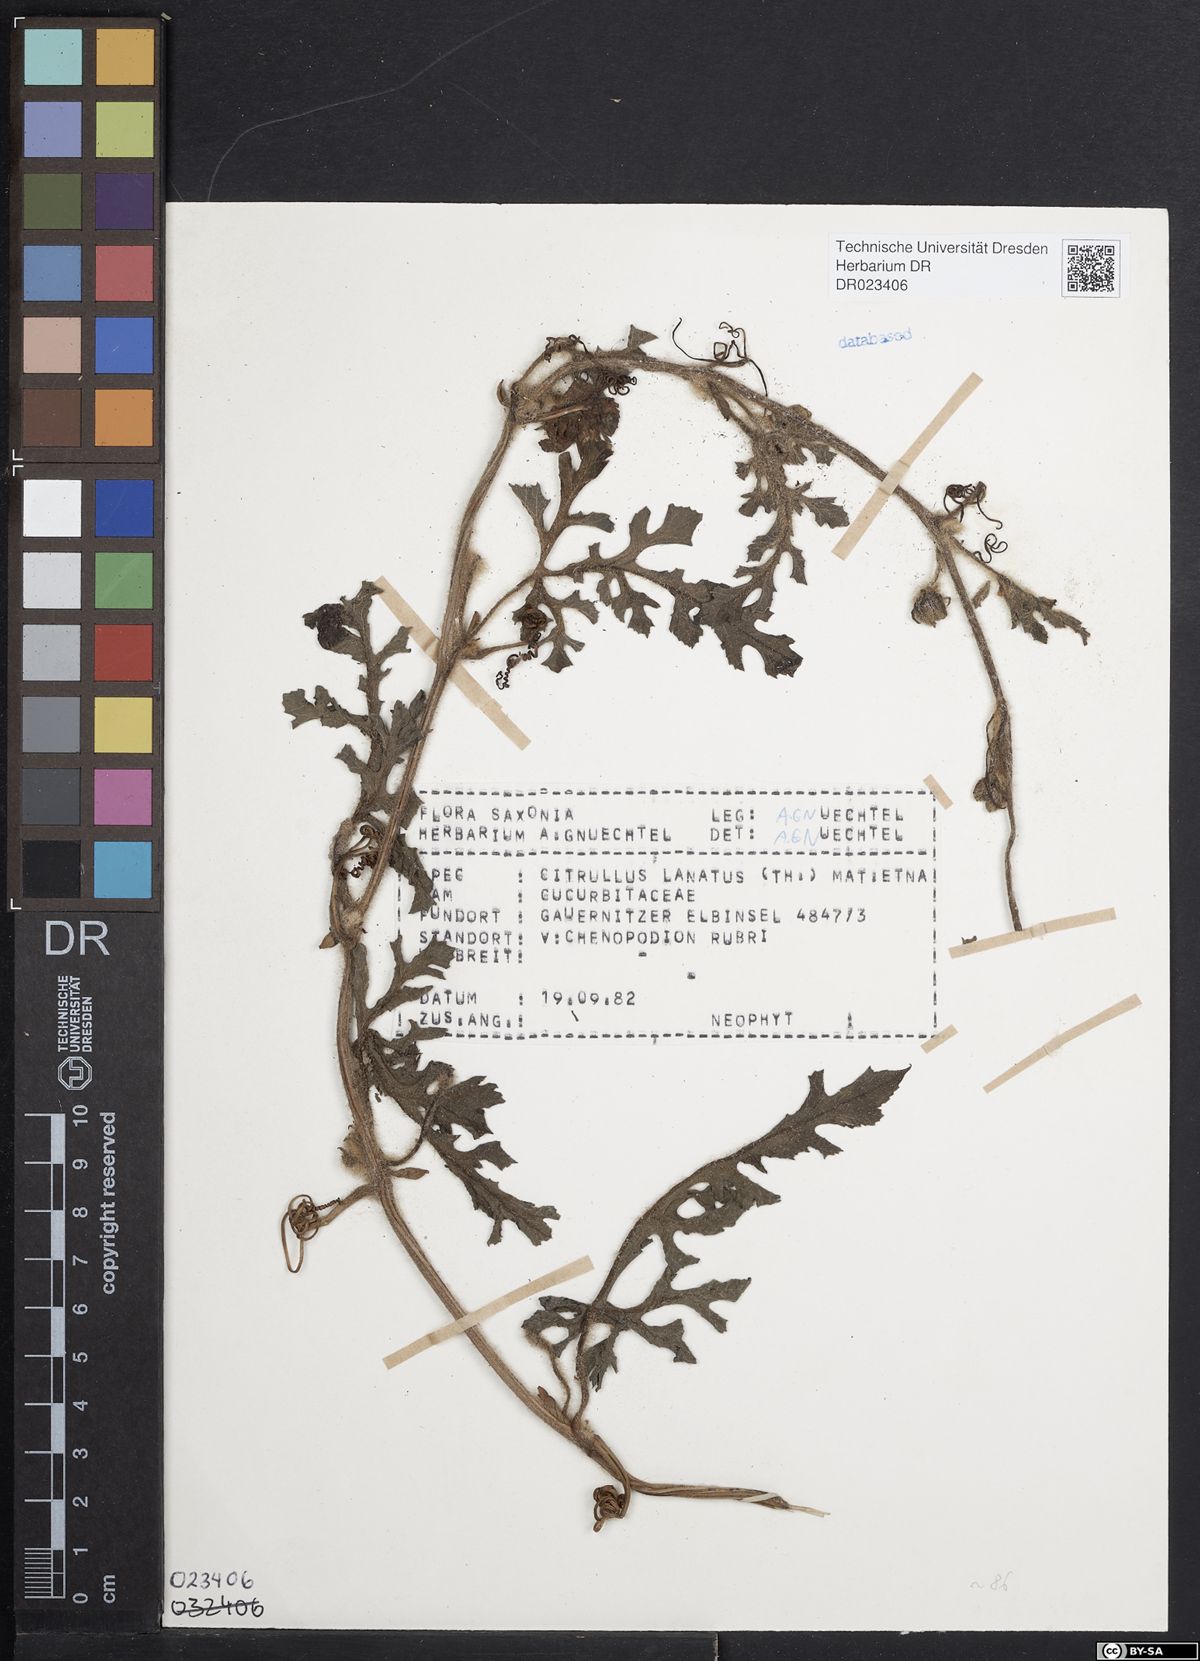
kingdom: Plantae
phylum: Tracheophyta
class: Magnoliopsida
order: Cucurbitales
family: Cucurbitaceae
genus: Citrullus
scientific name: Citrullus lanatus
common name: Watermelon
